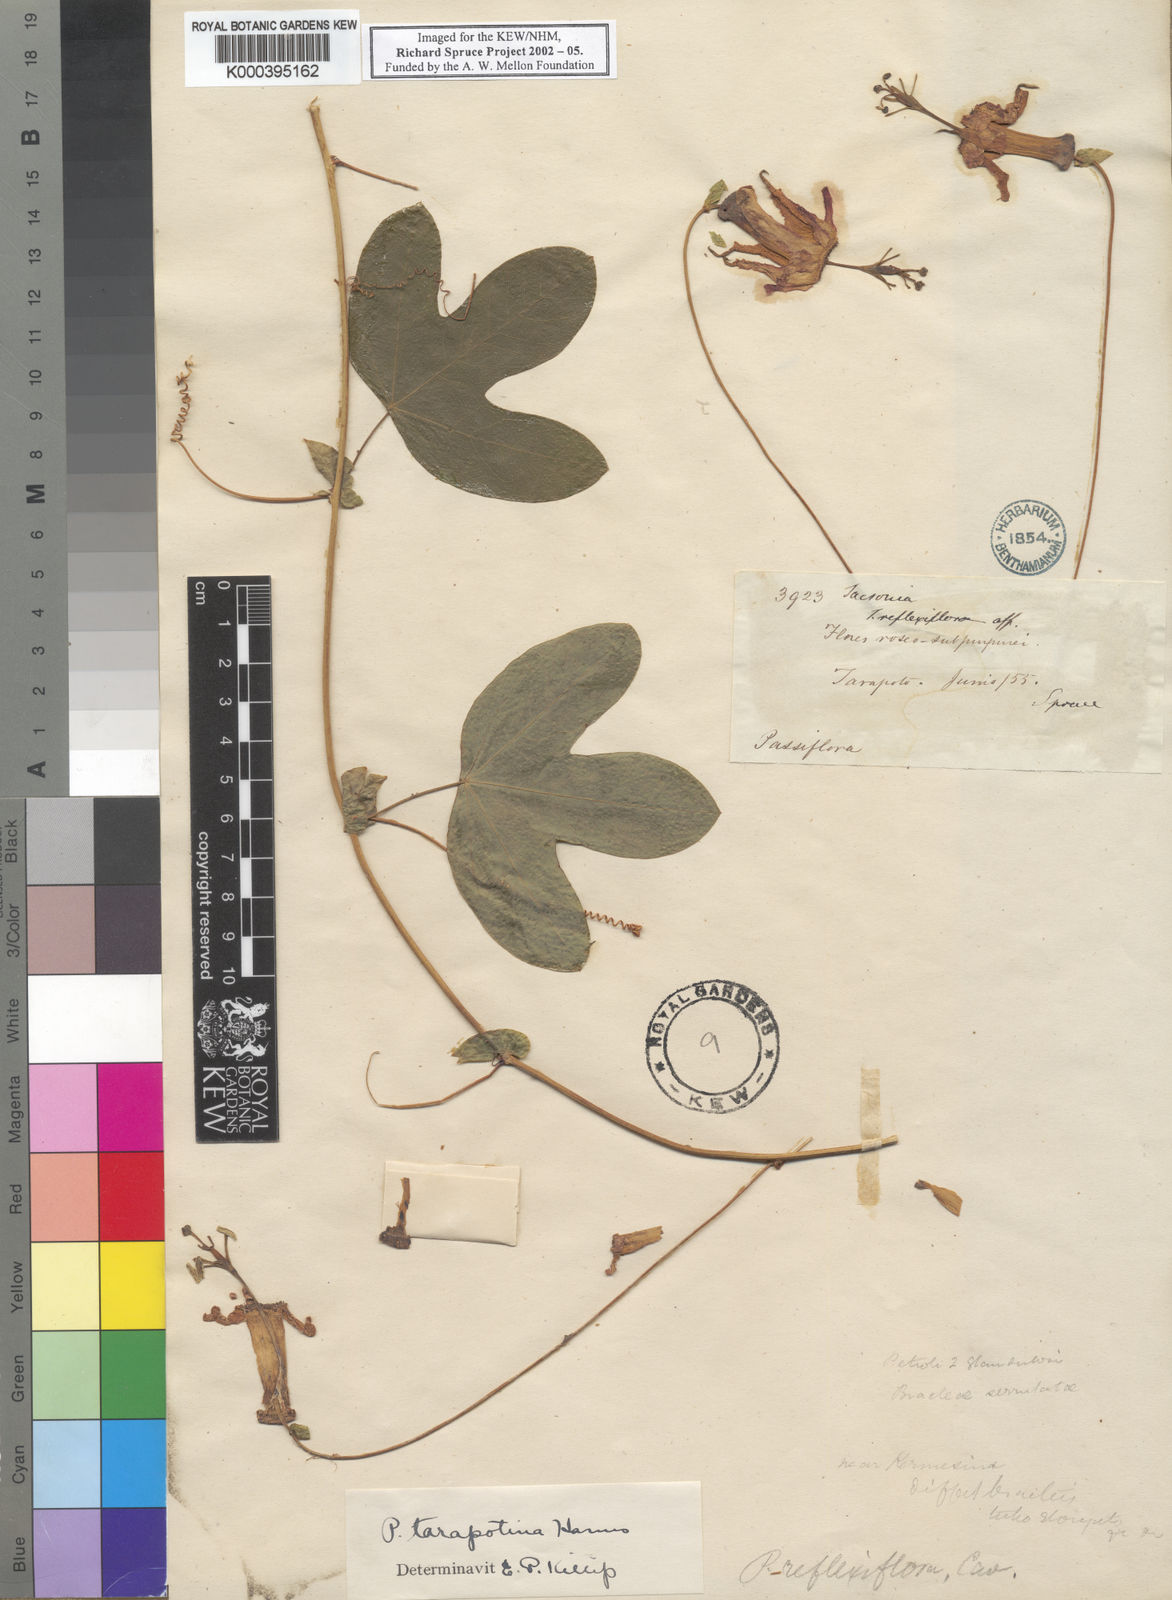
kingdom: Plantae
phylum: Tracheophyta
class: Magnoliopsida
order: Malpighiales
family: Passifloraceae
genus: Passiflora
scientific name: Passiflora tarapotina
